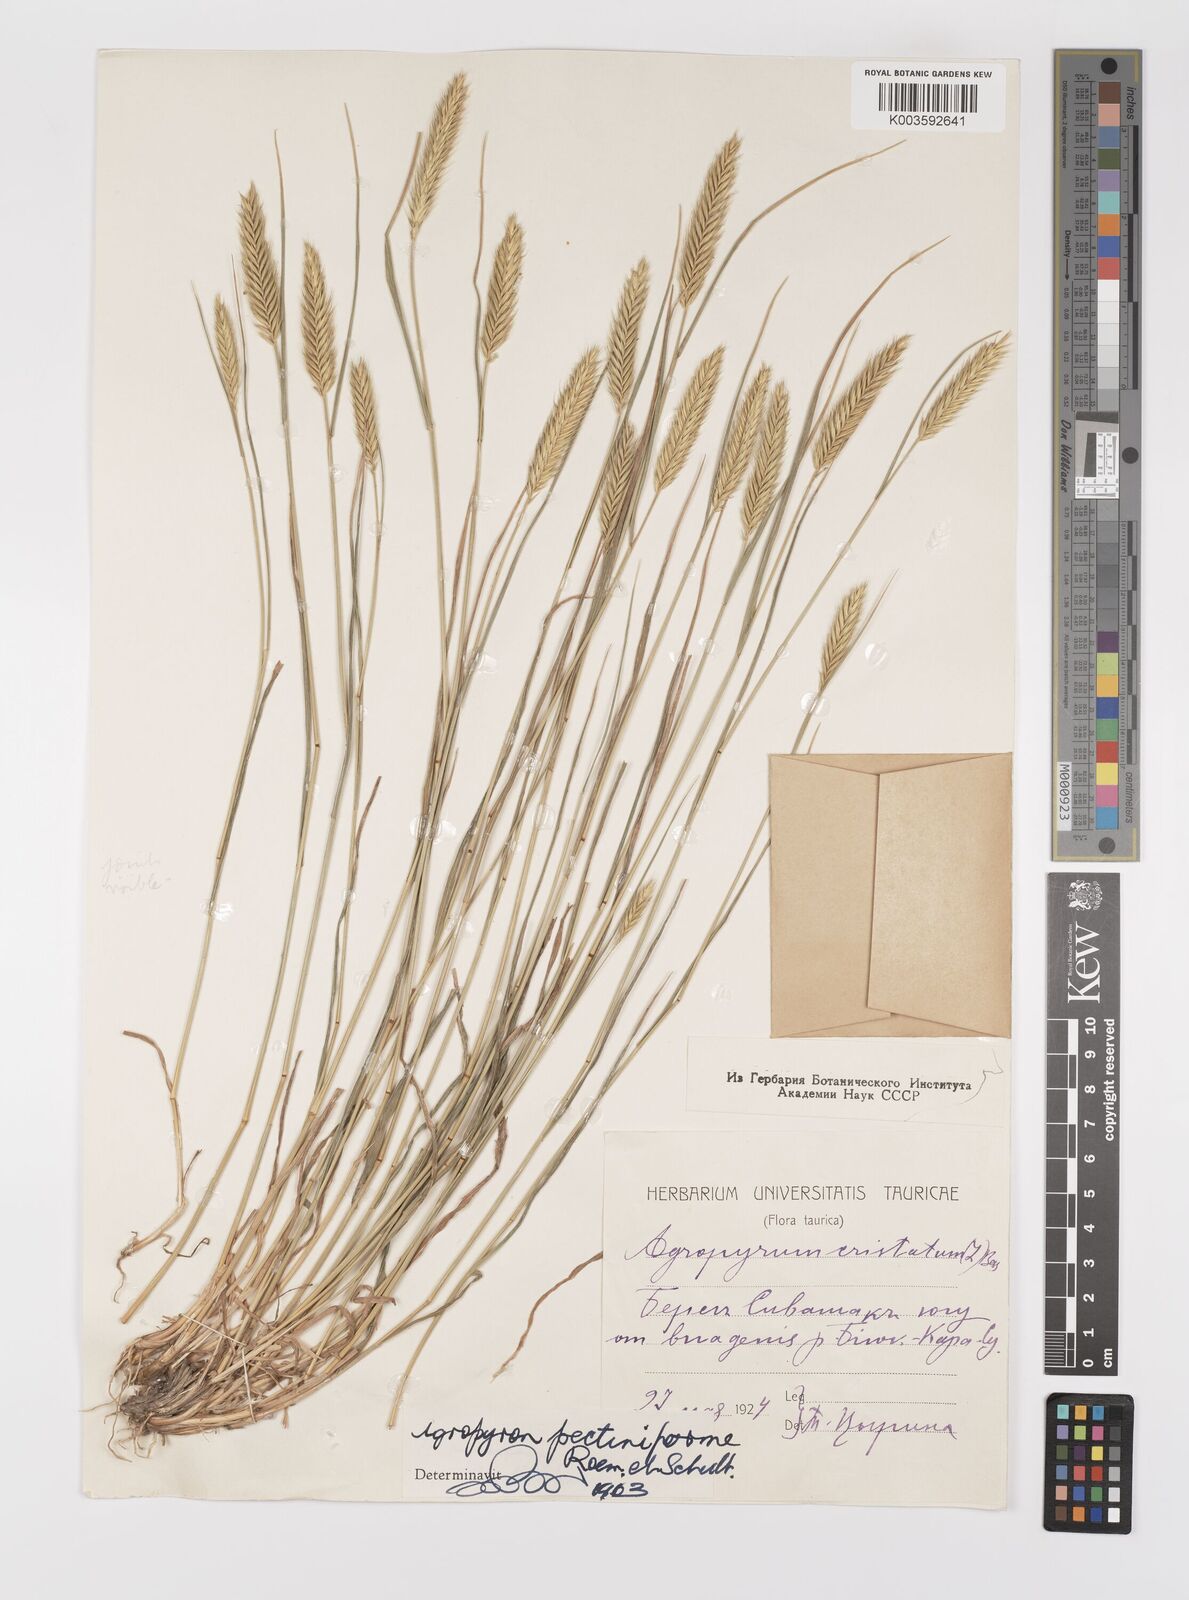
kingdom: Plantae
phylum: Tracheophyta
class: Liliopsida
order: Poales
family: Poaceae
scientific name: Poaceae
